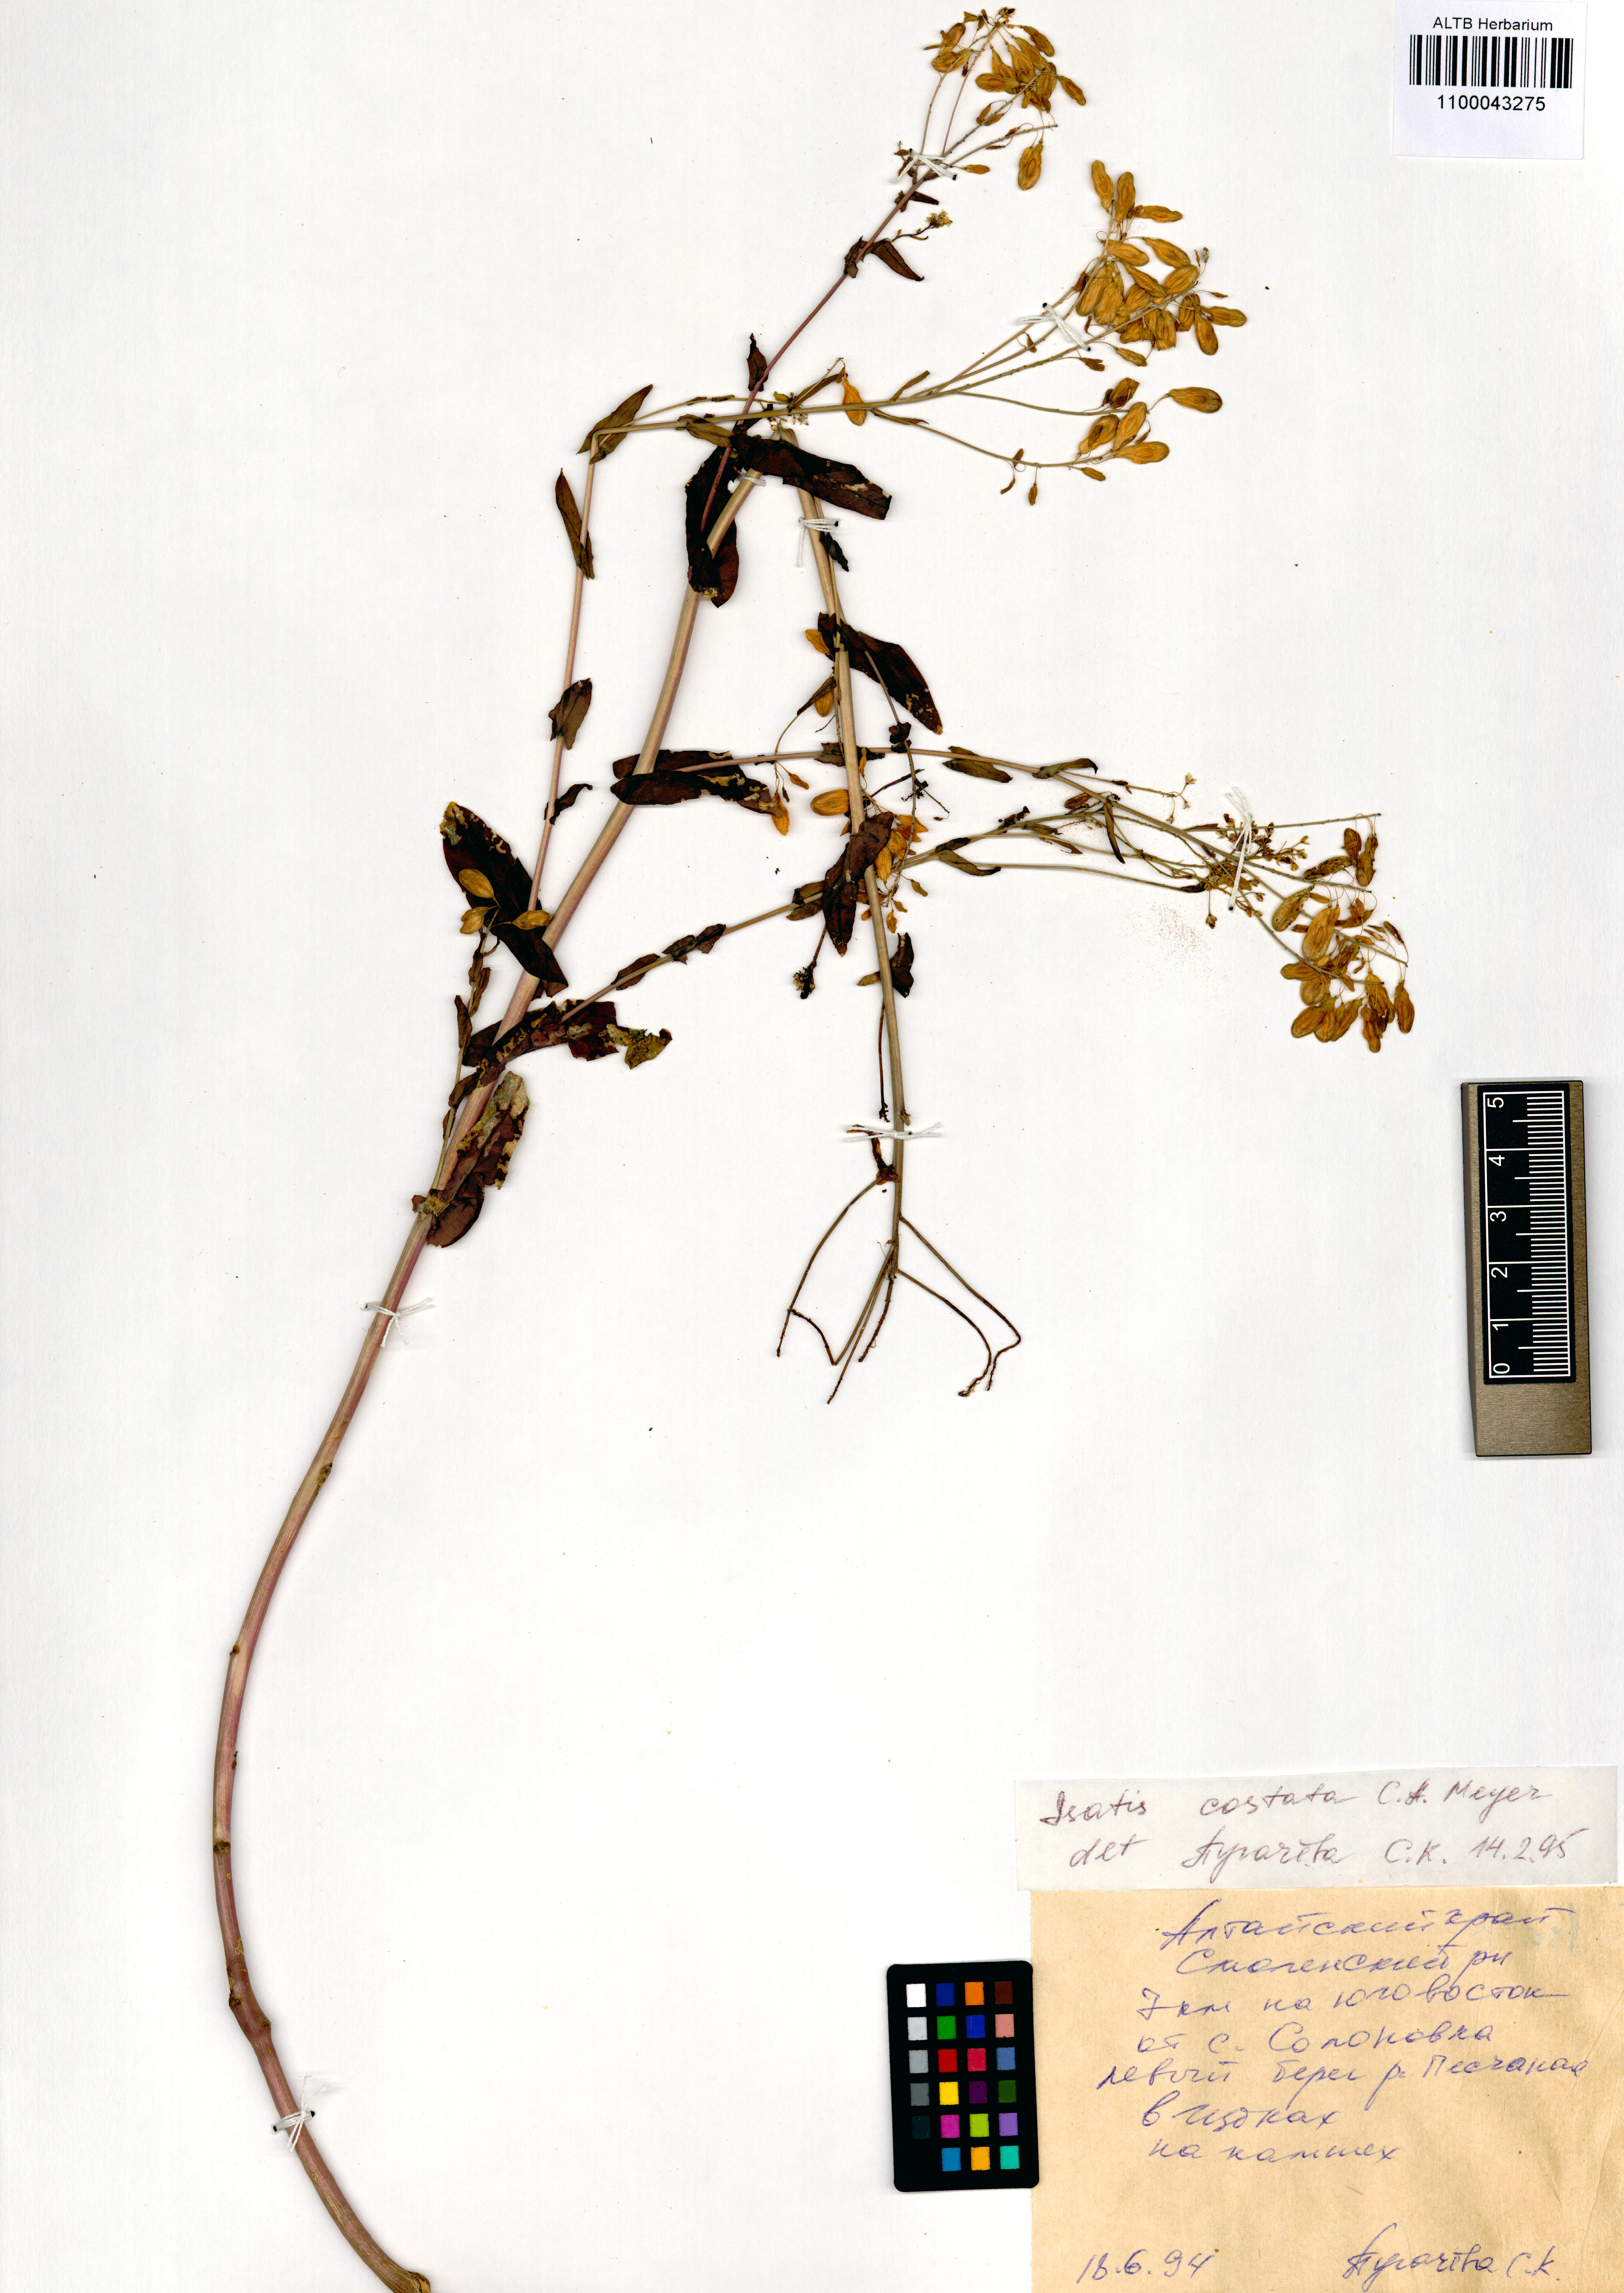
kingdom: Plantae
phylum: Tracheophyta
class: Magnoliopsida
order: Brassicales
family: Brassicaceae
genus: Isatis
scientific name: Isatis costata
